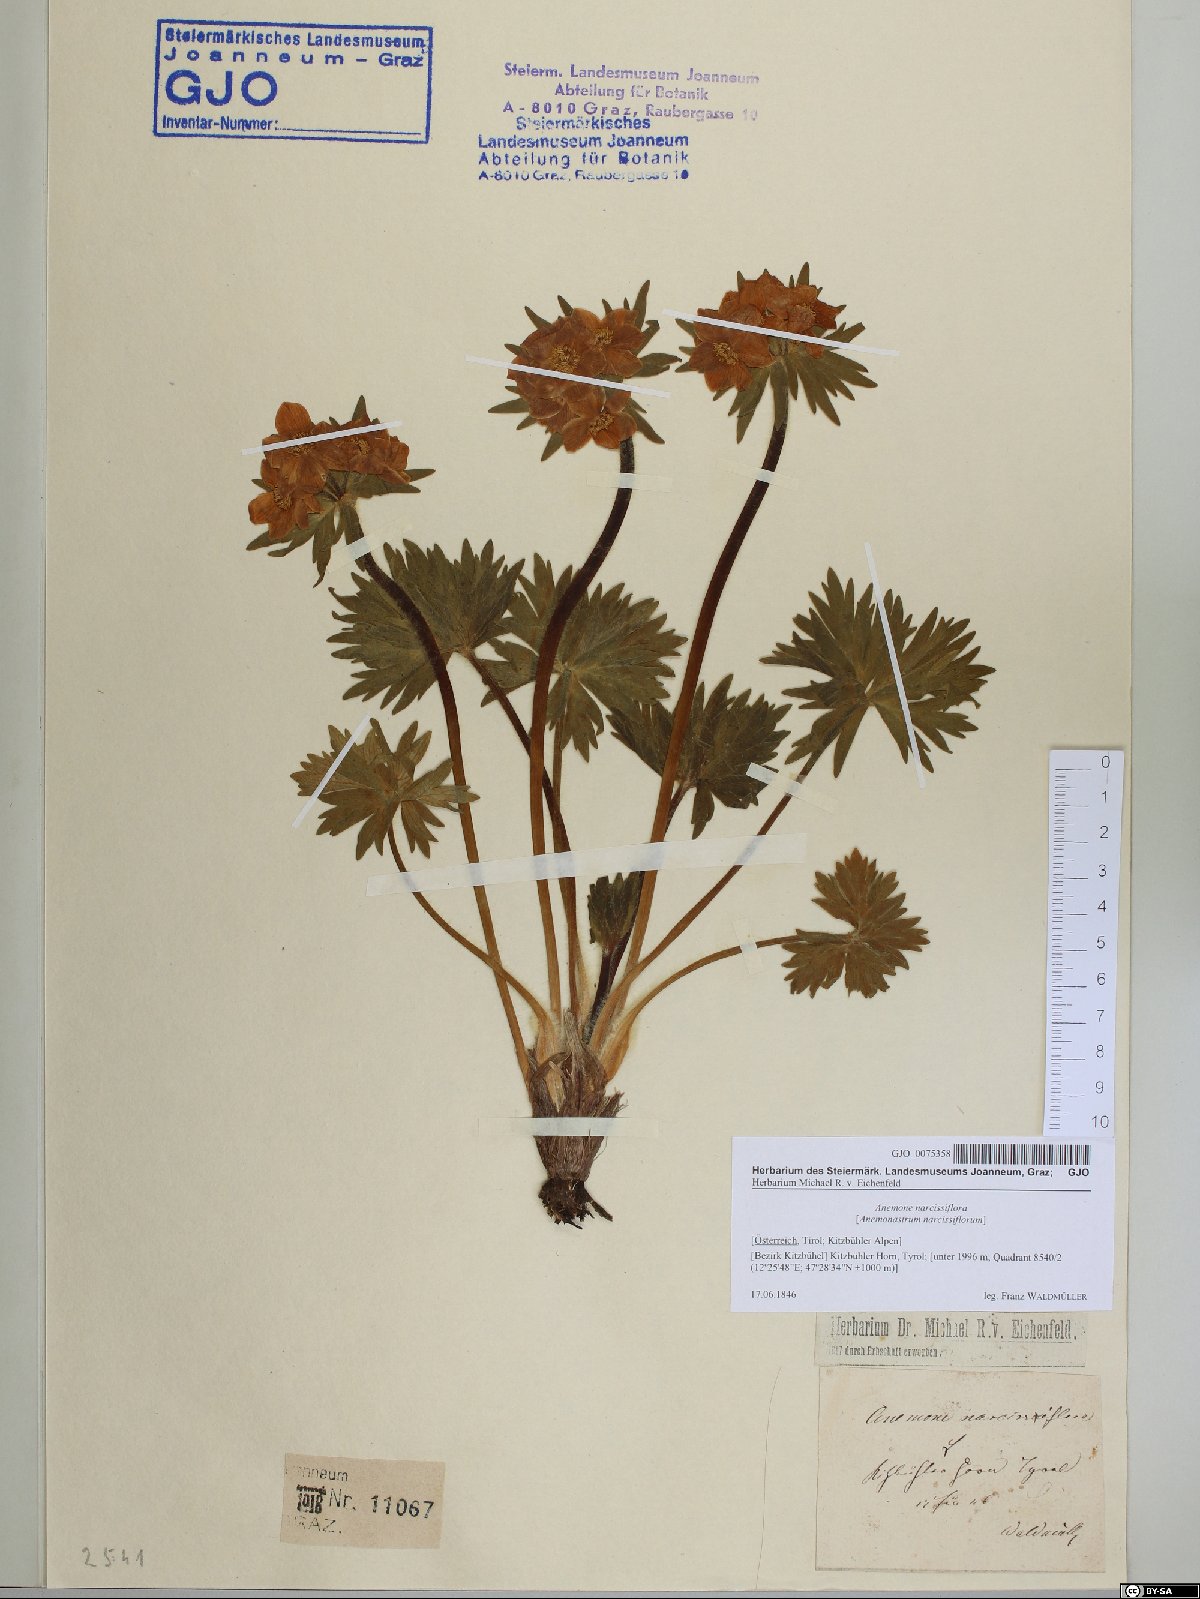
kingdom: Plantae
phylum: Tracheophyta
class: Magnoliopsida
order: Ranunculales
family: Ranunculaceae
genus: Anemonastrum
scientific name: Anemonastrum narcissiflorum
